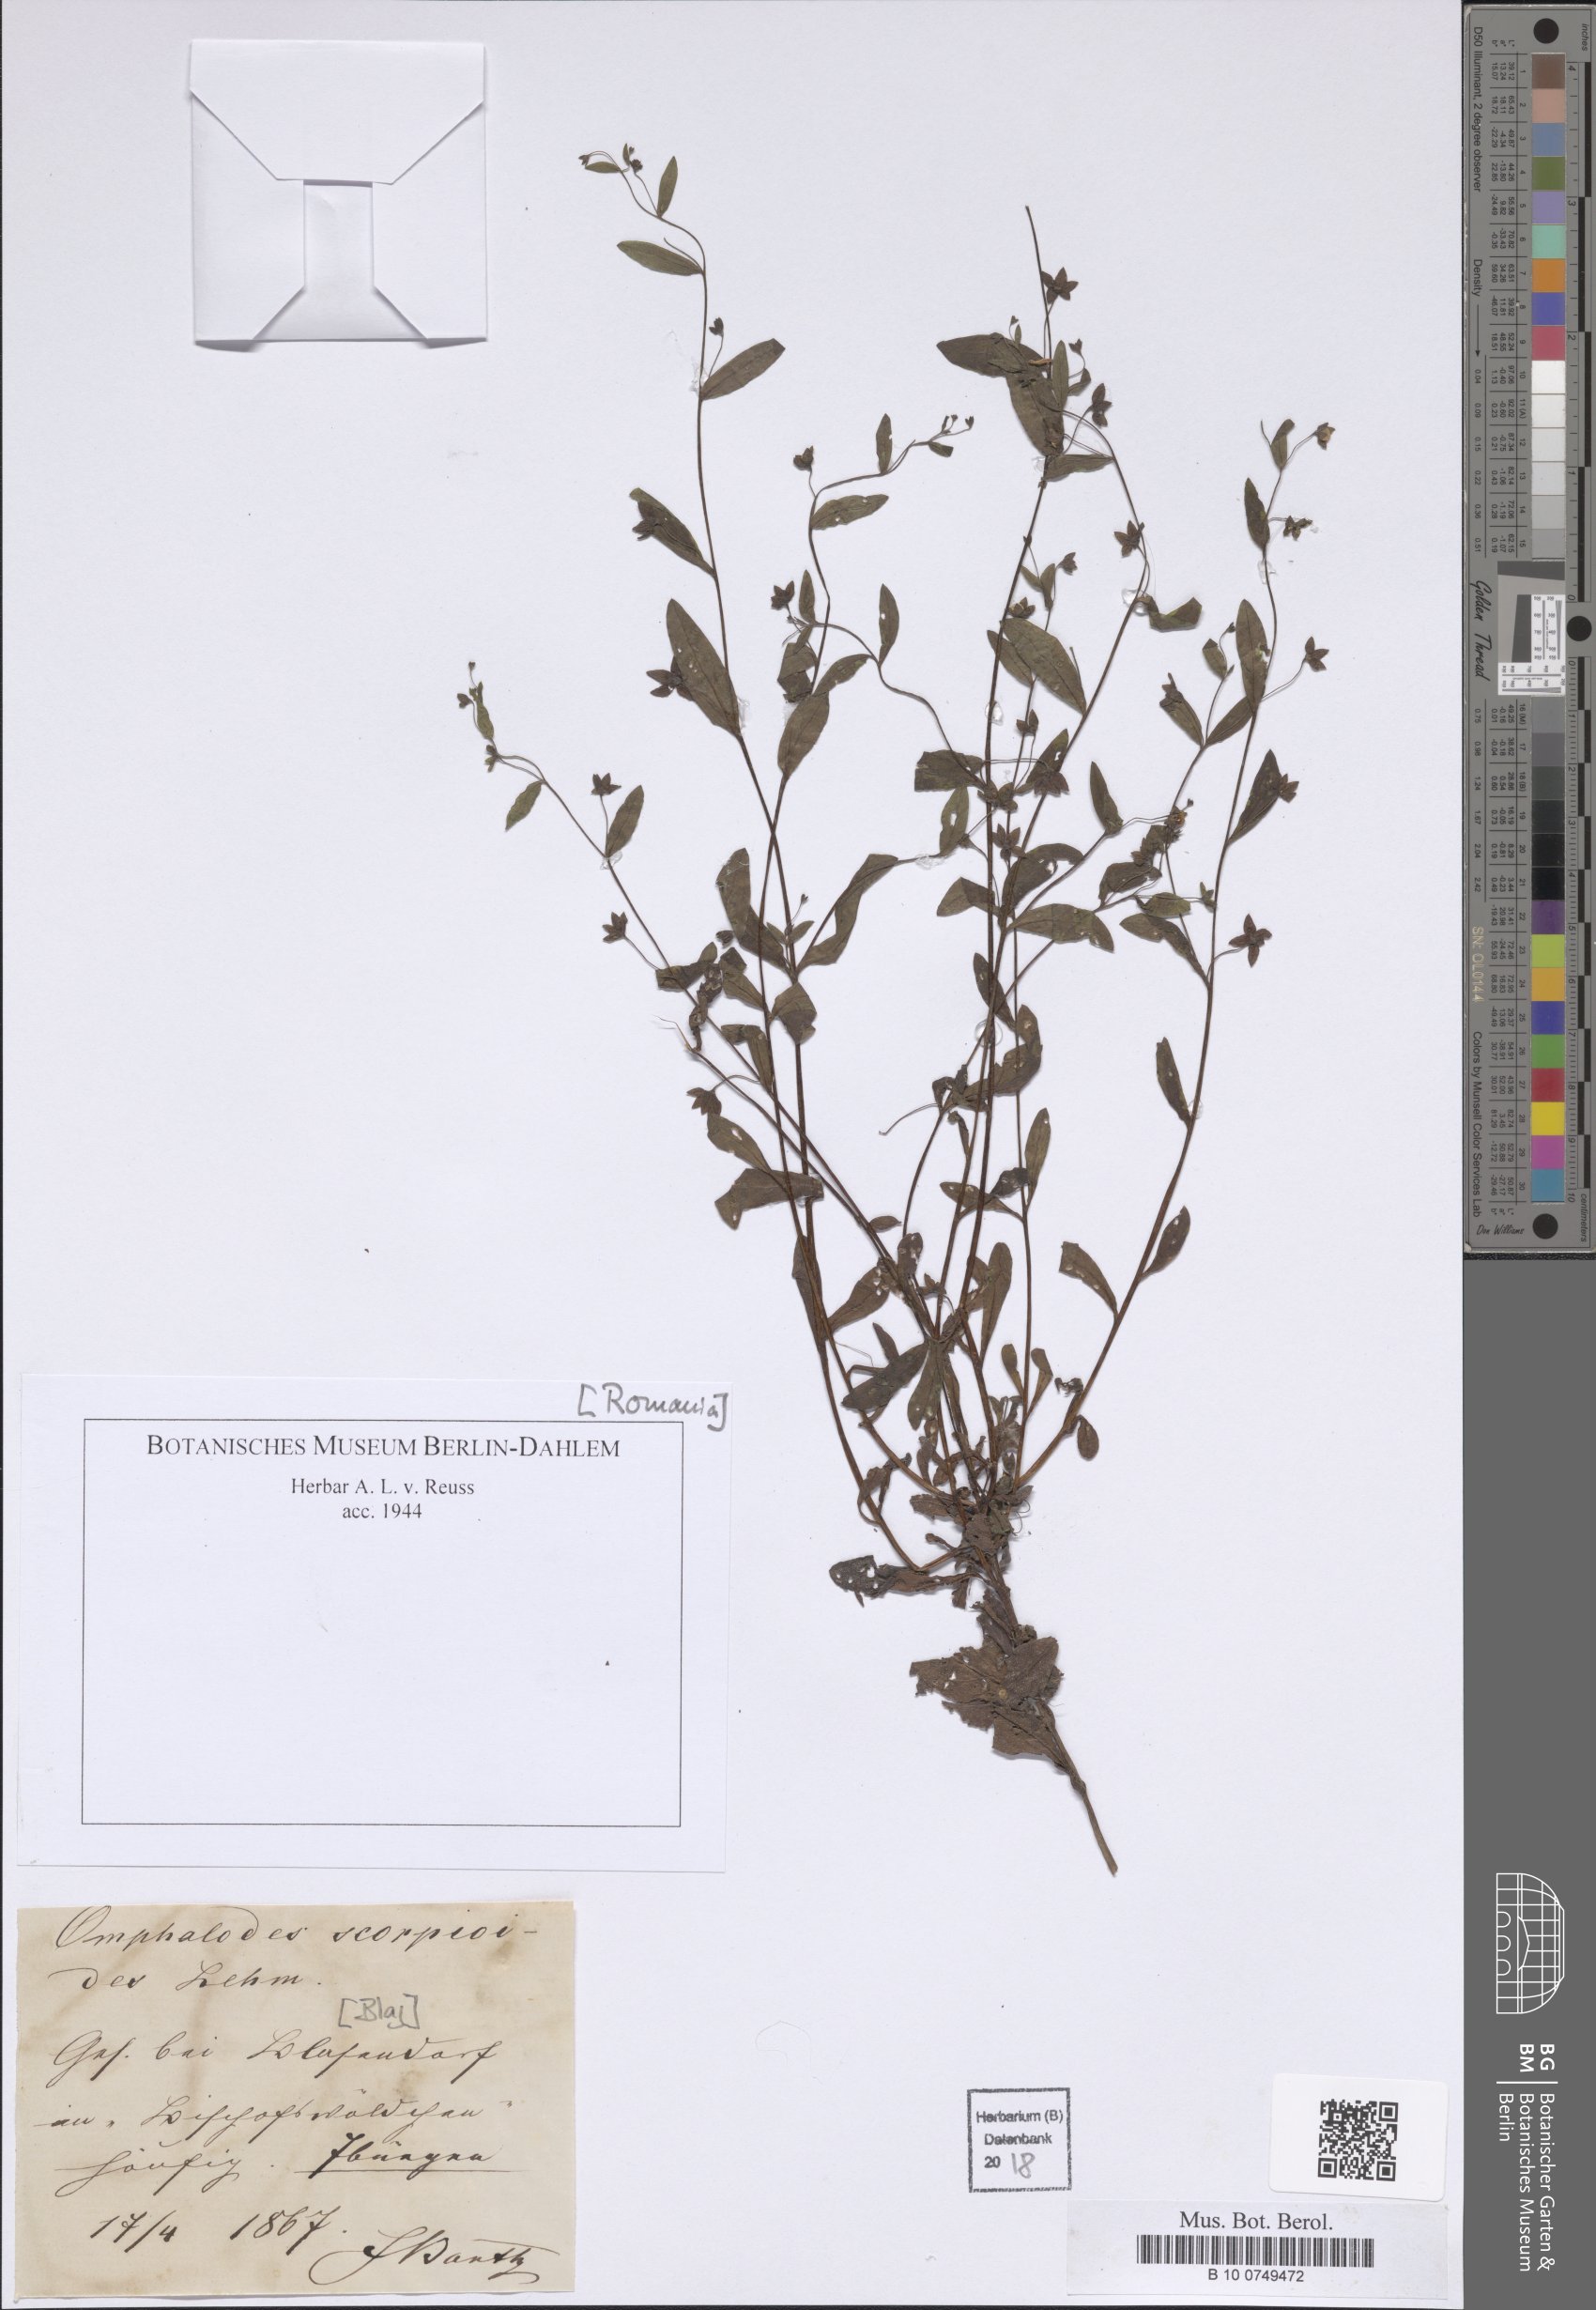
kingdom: Plantae
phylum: Tracheophyta
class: Magnoliopsida
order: Boraginales
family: Boraginaceae
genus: Memoremea
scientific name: Memoremea scorpioides
